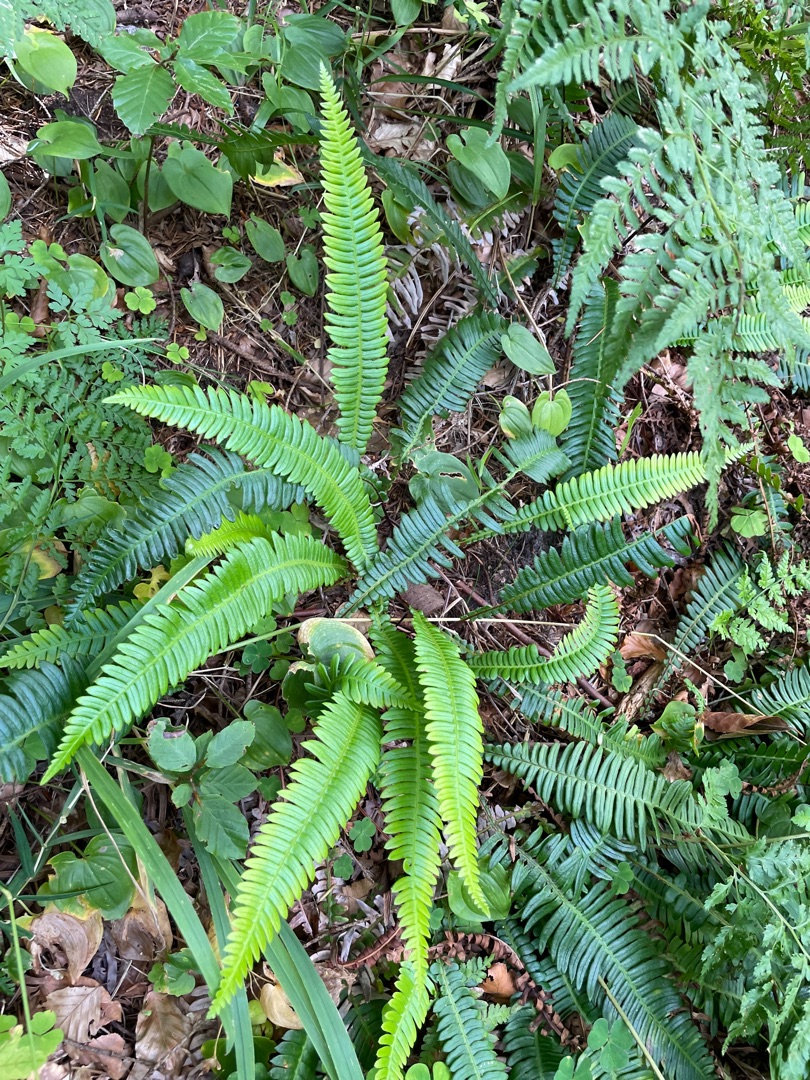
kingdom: Plantae
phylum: Tracheophyta
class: Polypodiopsida
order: Polypodiales
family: Blechnaceae
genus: Struthiopteris
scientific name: Struthiopteris spicant
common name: Kambregne
